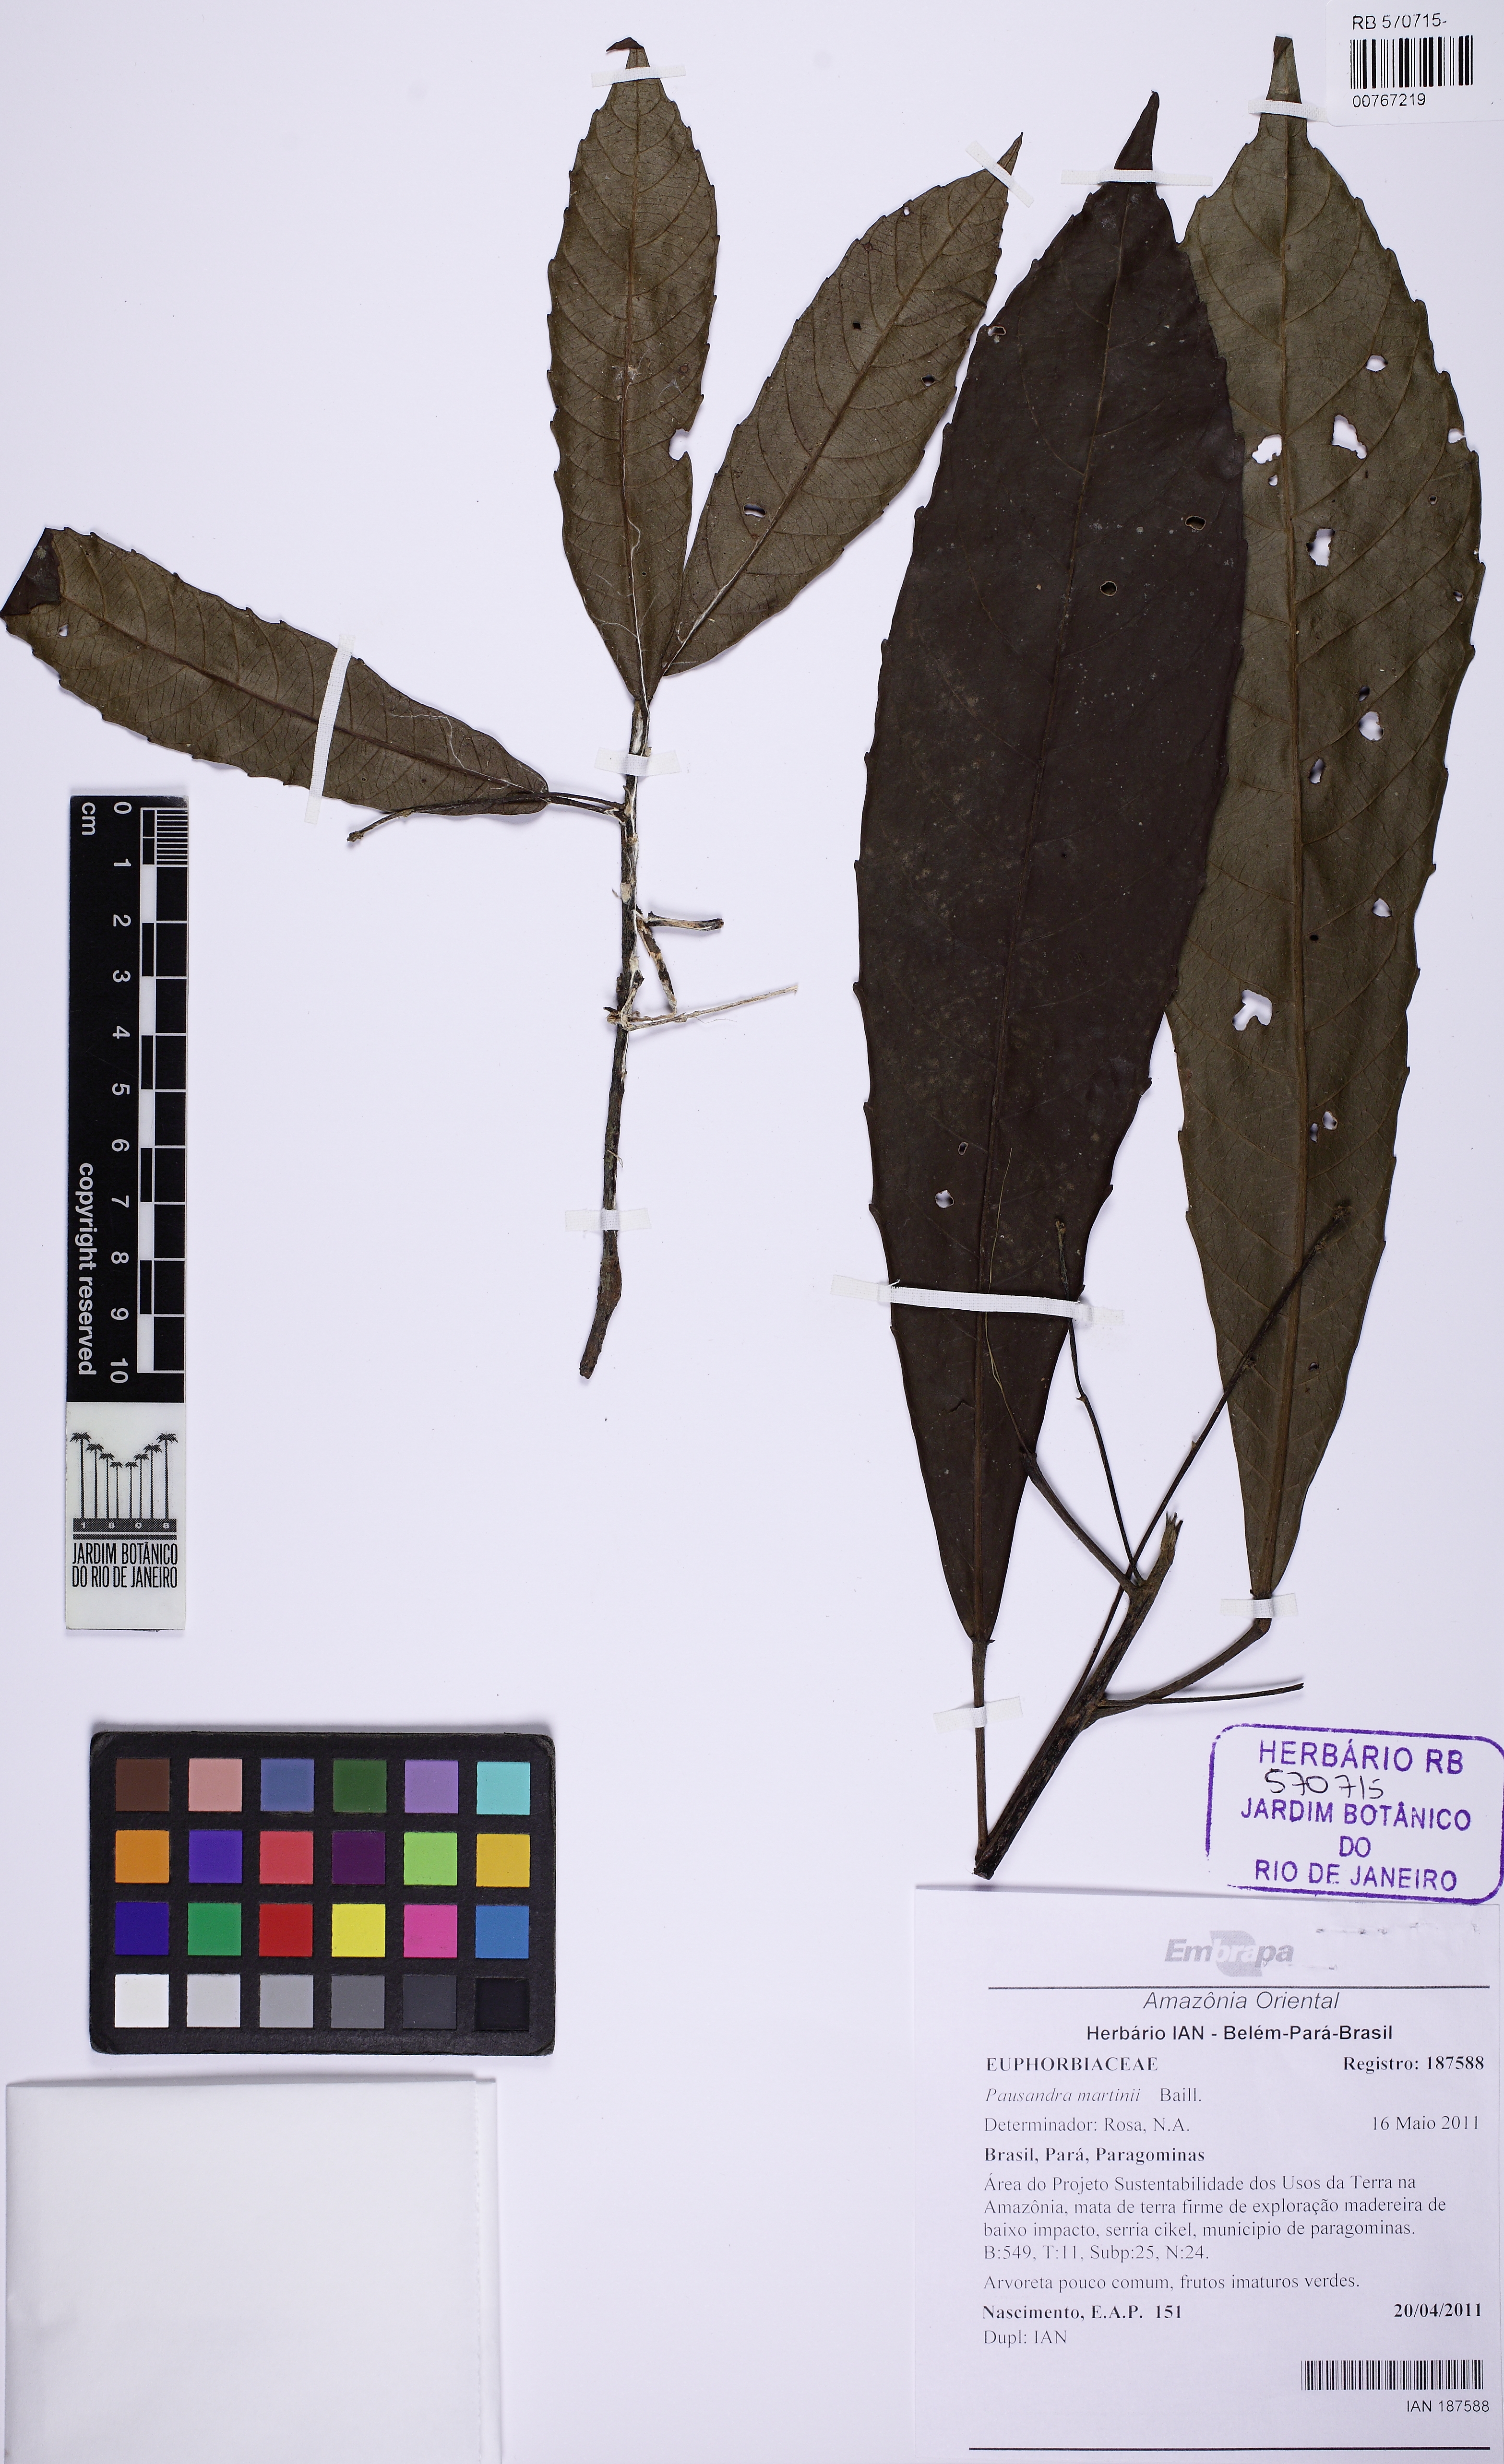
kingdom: Plantae
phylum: Tracheophyta
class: Magnoliopsida
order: Malpighiales
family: Euphorbiaceae
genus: Pausandra
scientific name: Pausandra martini
